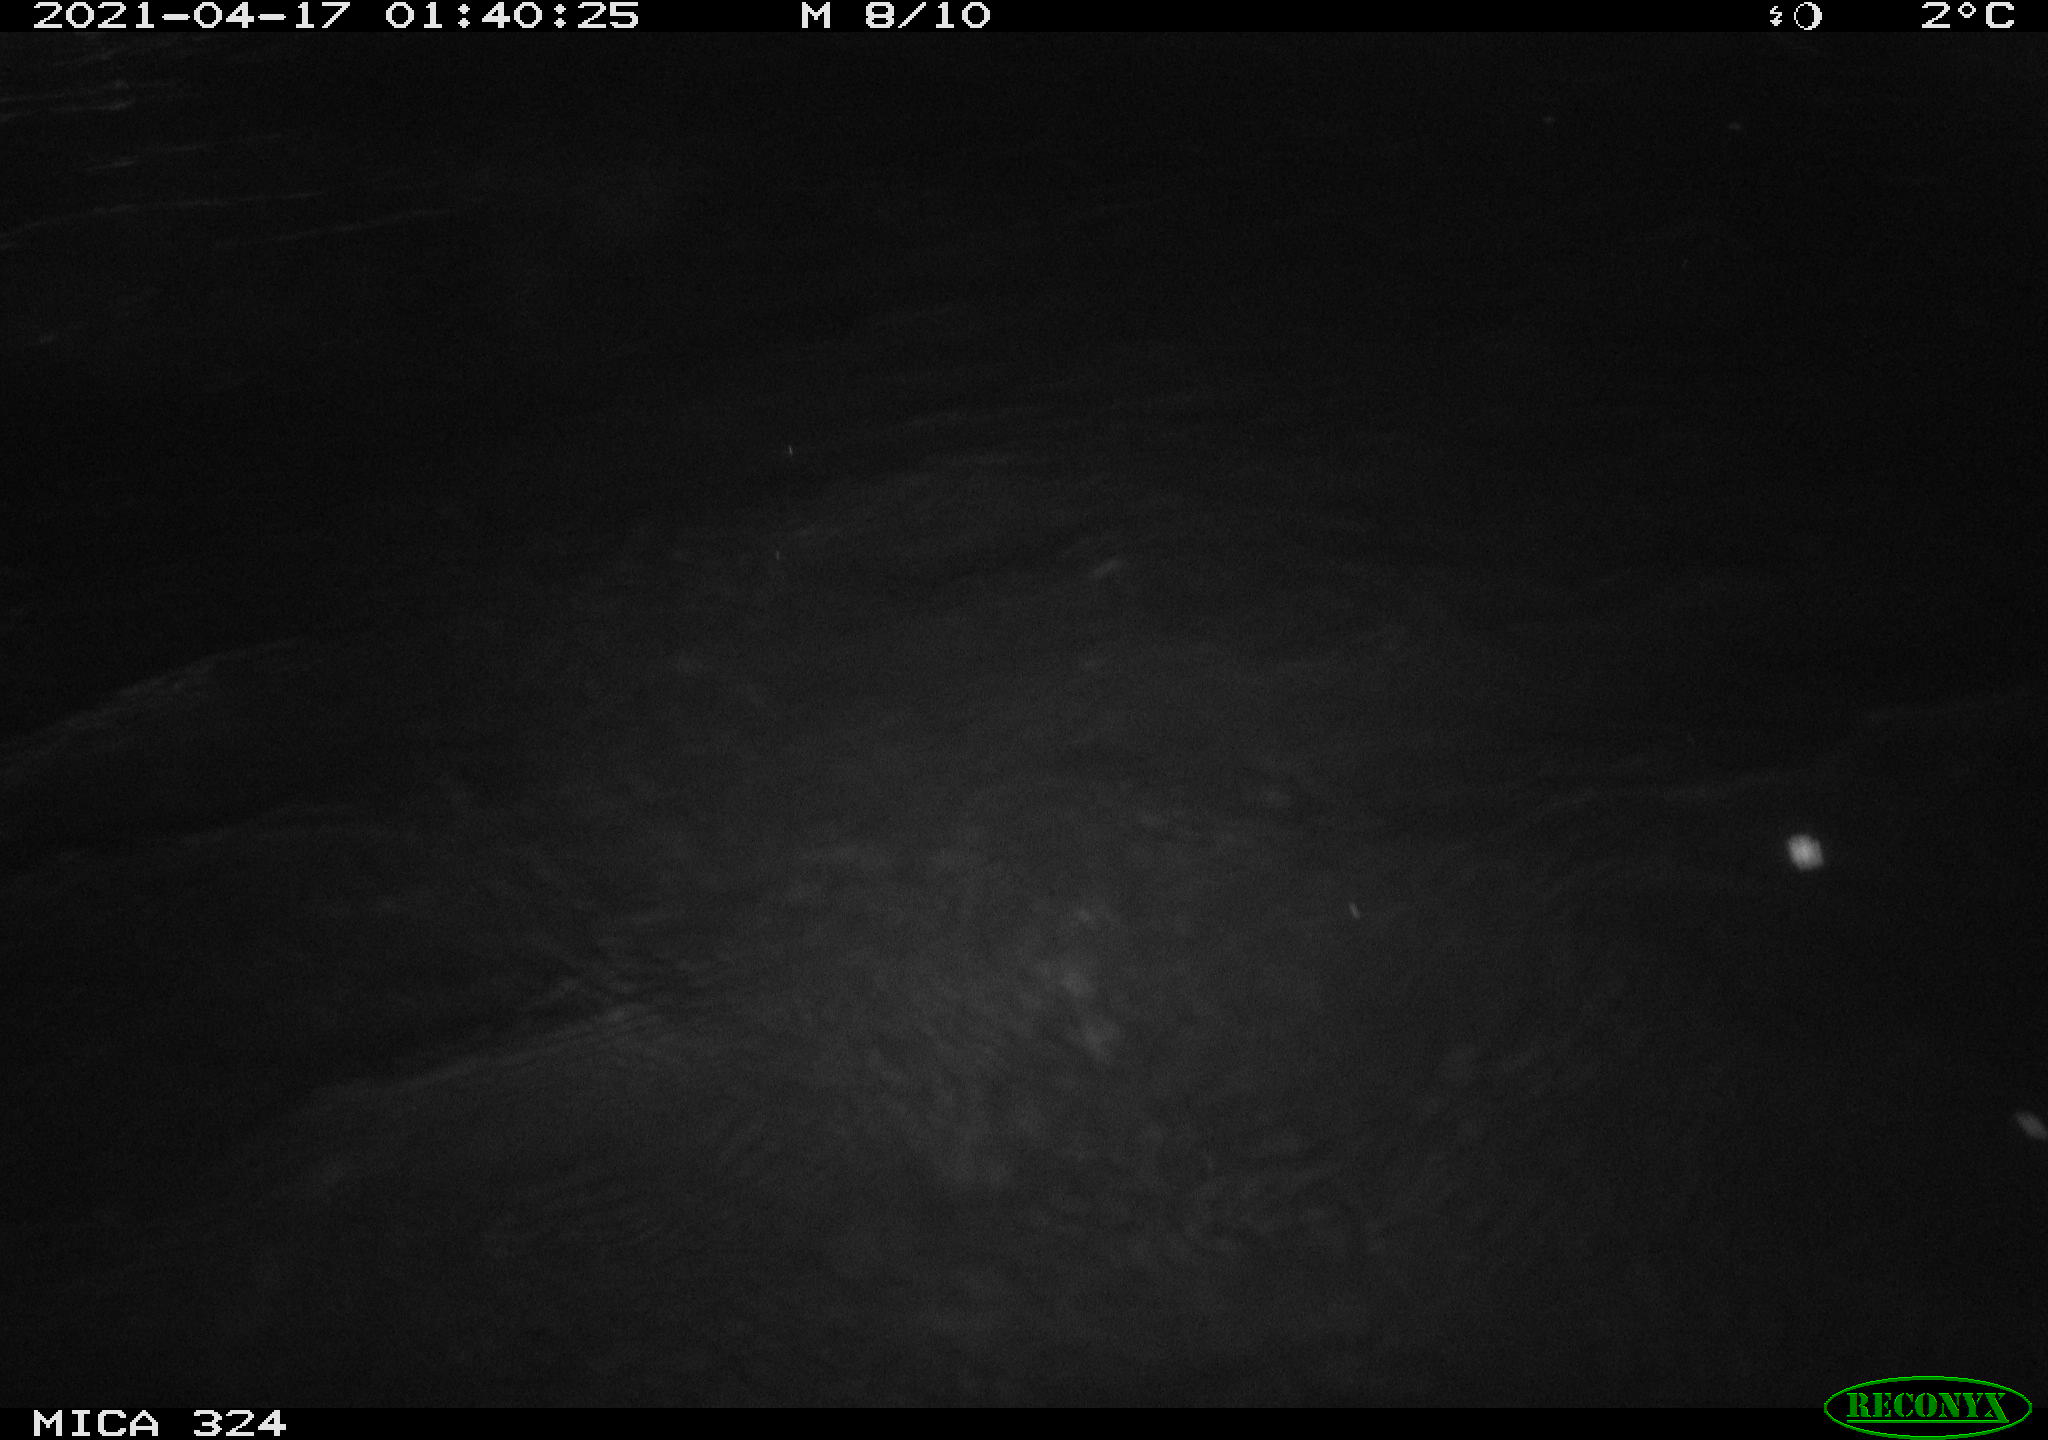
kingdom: Animalia
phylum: Chordata
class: Aves
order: Anseriformes
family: Anatidae
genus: Anas
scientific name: Anas platyrhynchos
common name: Mallard
